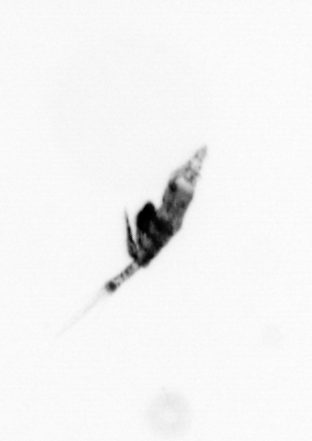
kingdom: Animalia
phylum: Arthropoda
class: Copepoda
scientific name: Copepoda
